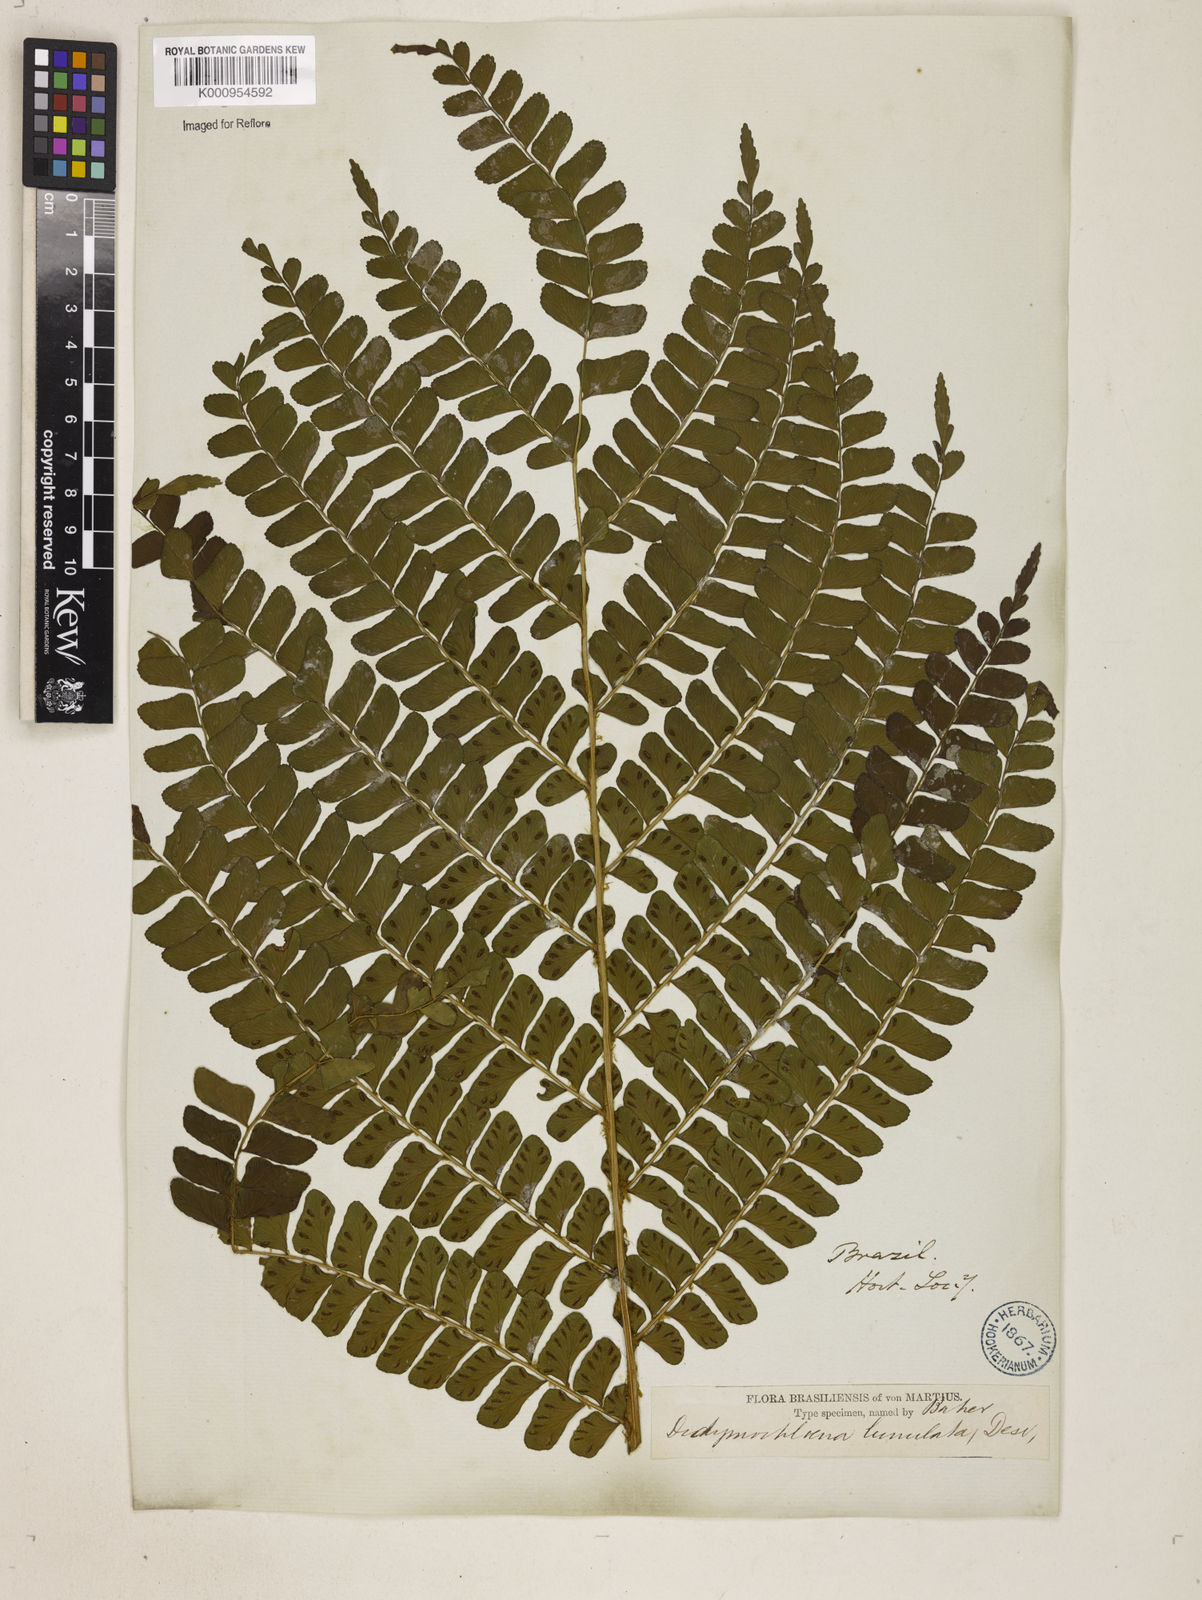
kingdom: Plantae
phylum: Tracheophyta
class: Polypodiopsida
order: Polypodiales
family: Didymochlaenaceae
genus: Didymochlaena
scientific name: Didymochlaena truncatula
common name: Mahogany fern
